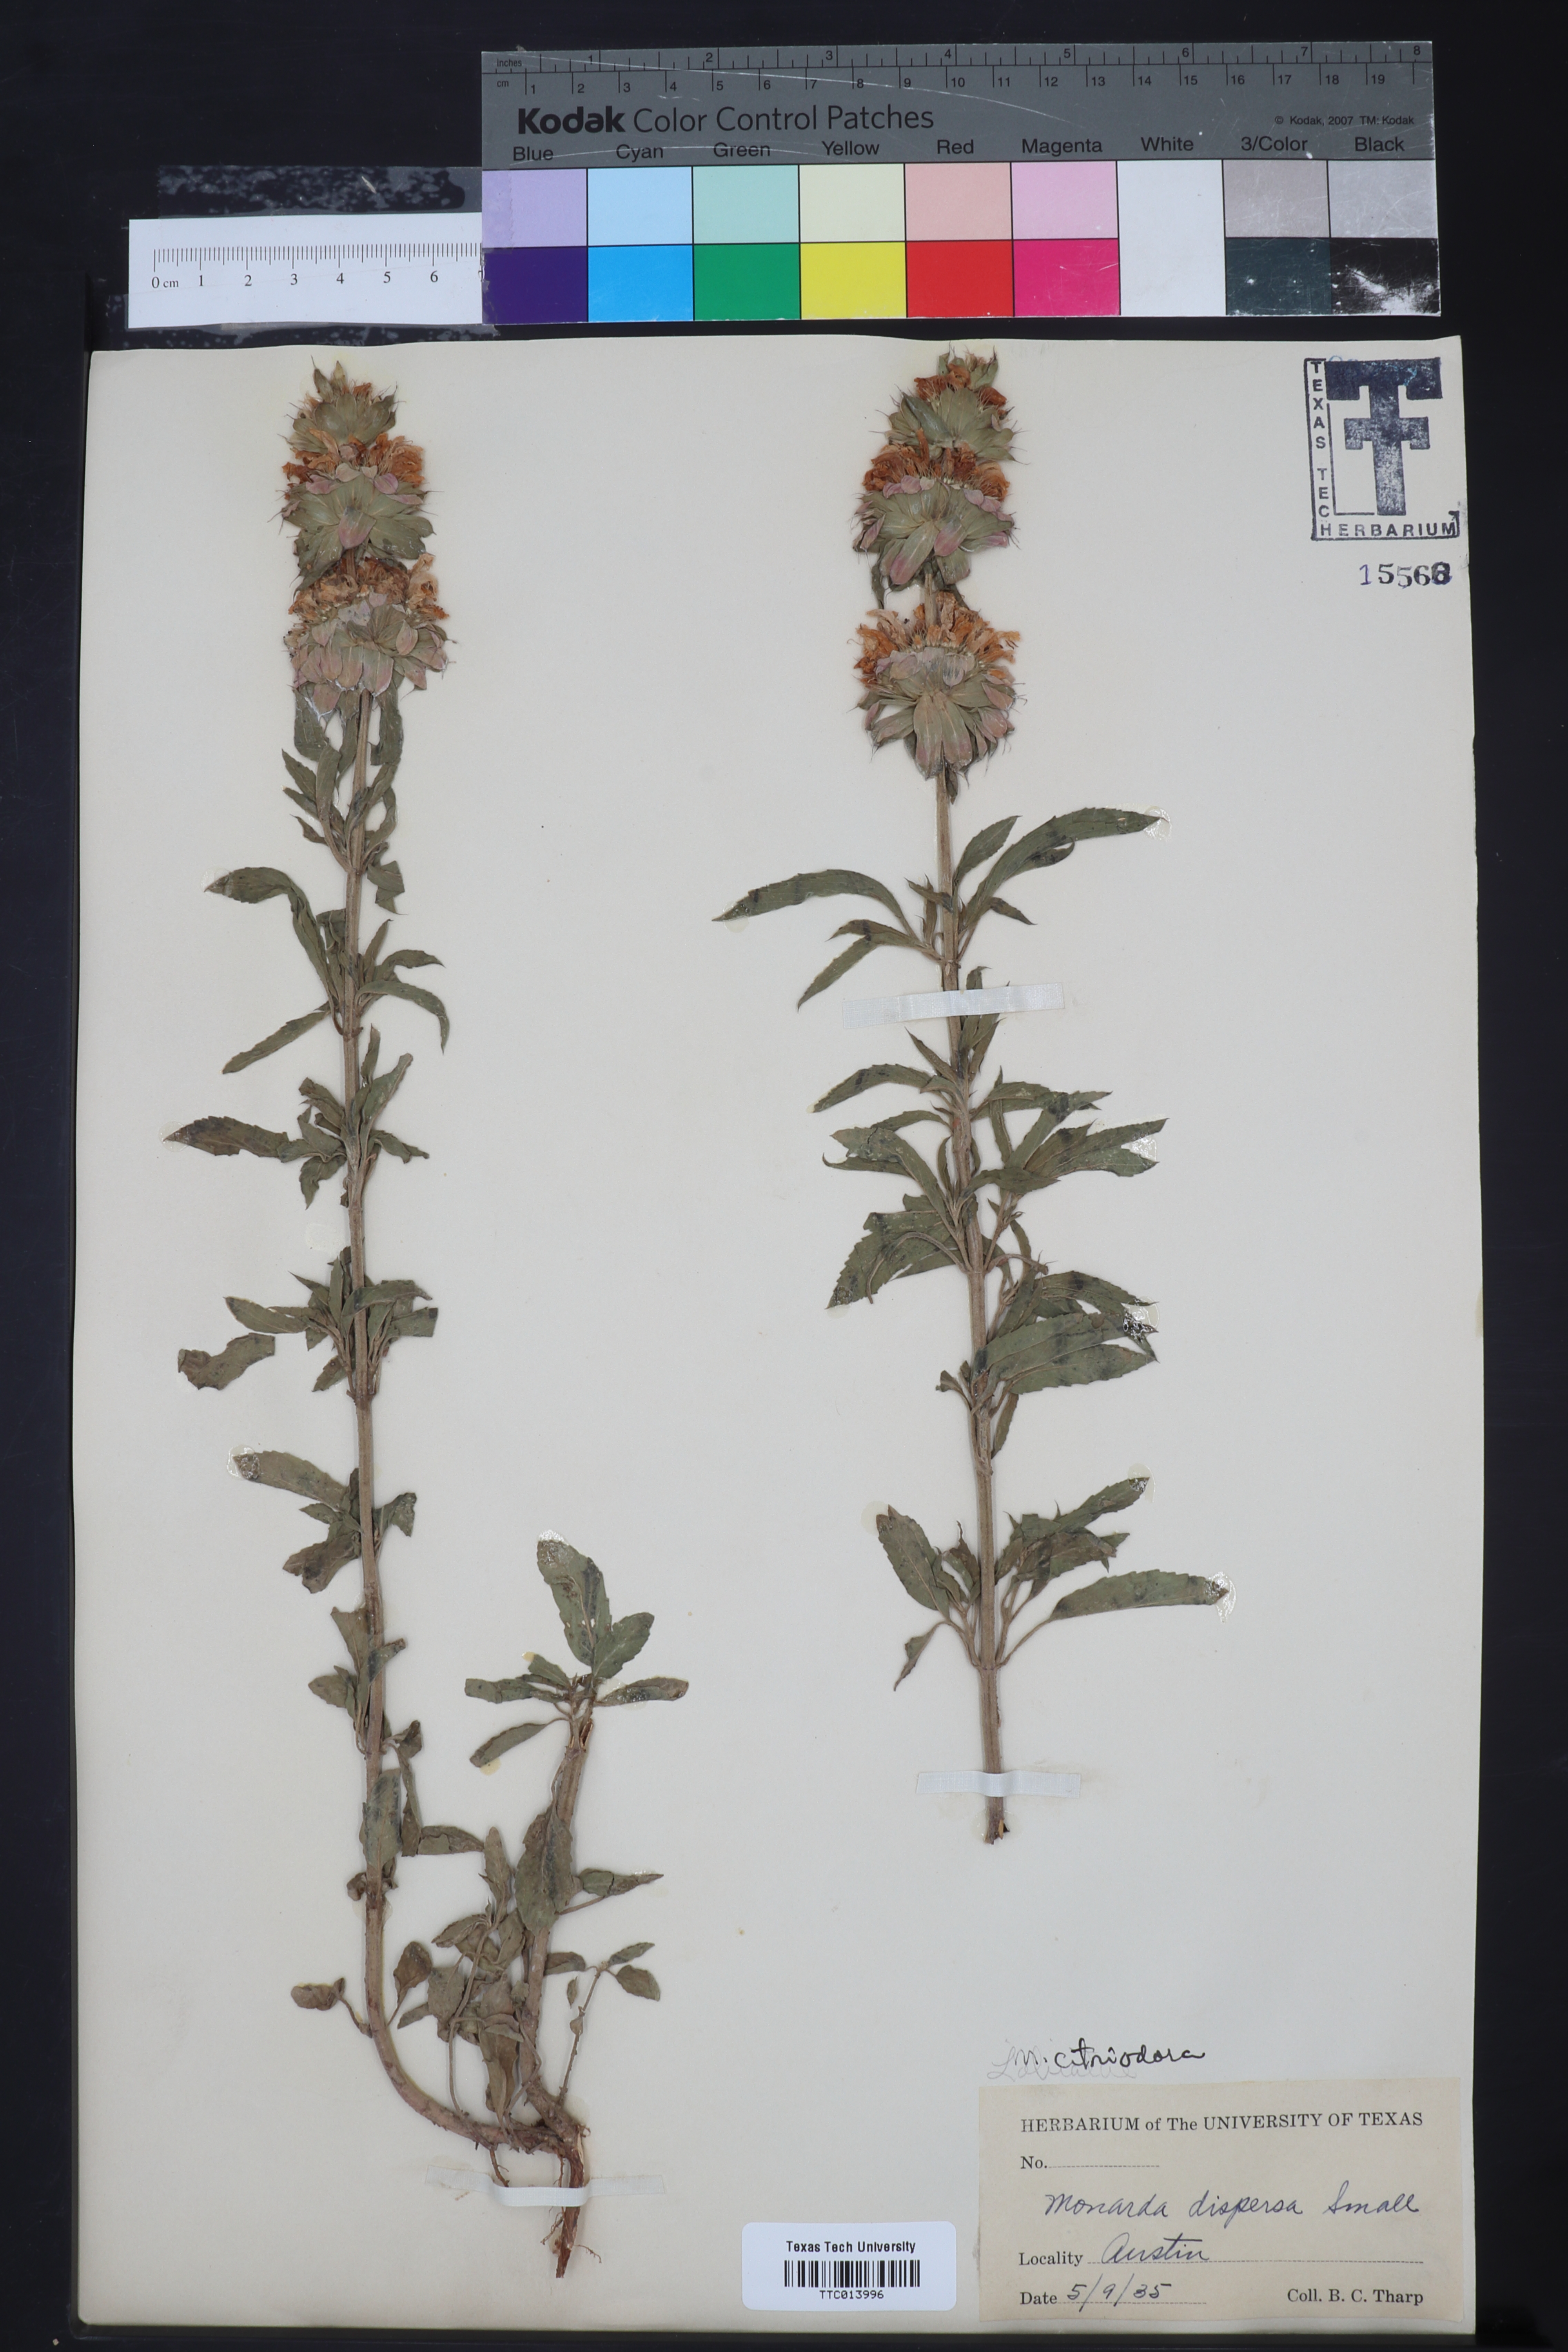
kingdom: Plantae
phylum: Tracheophyta
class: Magnoliopsida
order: Lamiales
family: Lamiaceae
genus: Monarda
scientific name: Monarda citriodora
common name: Lemon beebalm
